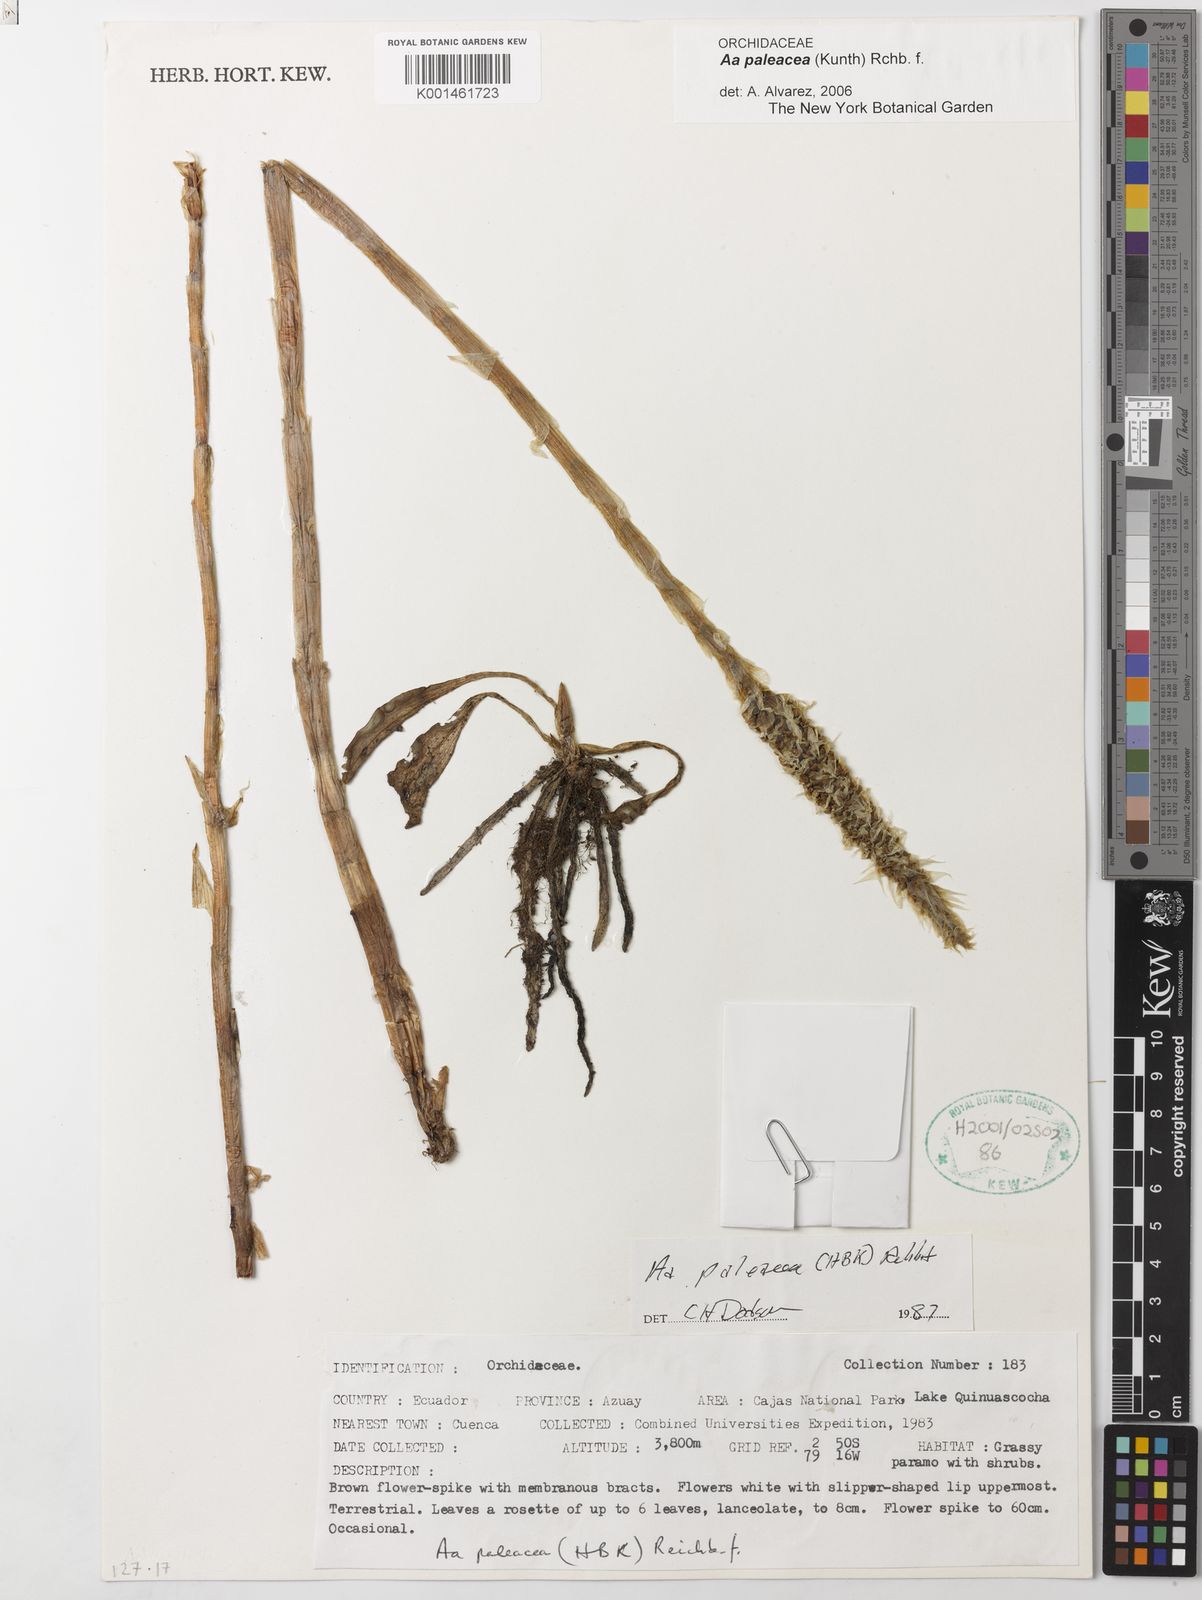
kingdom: Plantae
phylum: Tracheophyta
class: Liliopsida
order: Asparagales
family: Orchidaceae
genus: Aa
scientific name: Aa paleacea
